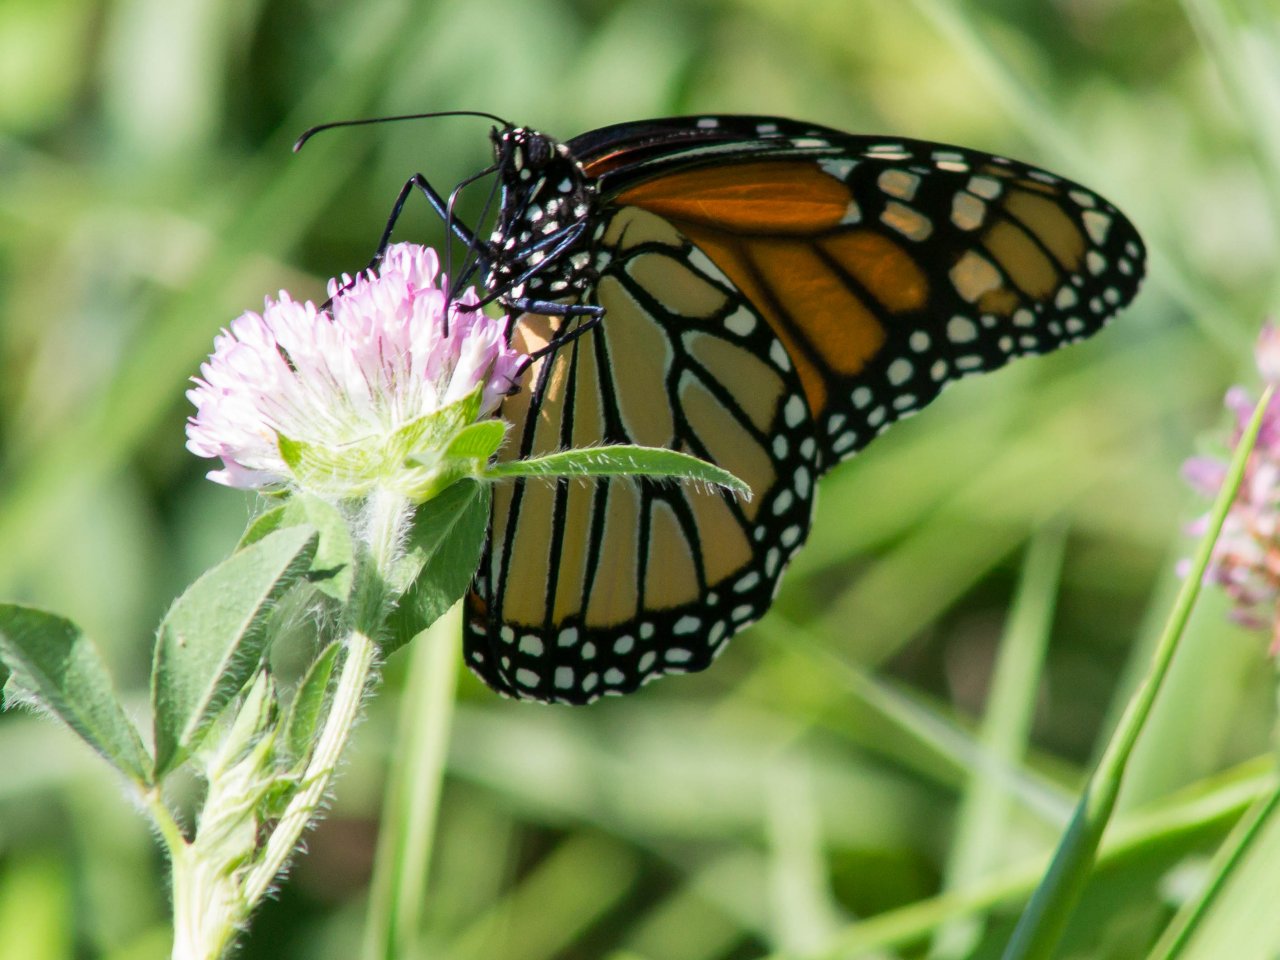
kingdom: Animalia
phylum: Arthropoda
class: Insecta
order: Lepidoptera
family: Nymphalidae
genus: Danaus
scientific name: Danaus plexippus
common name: Monarch
